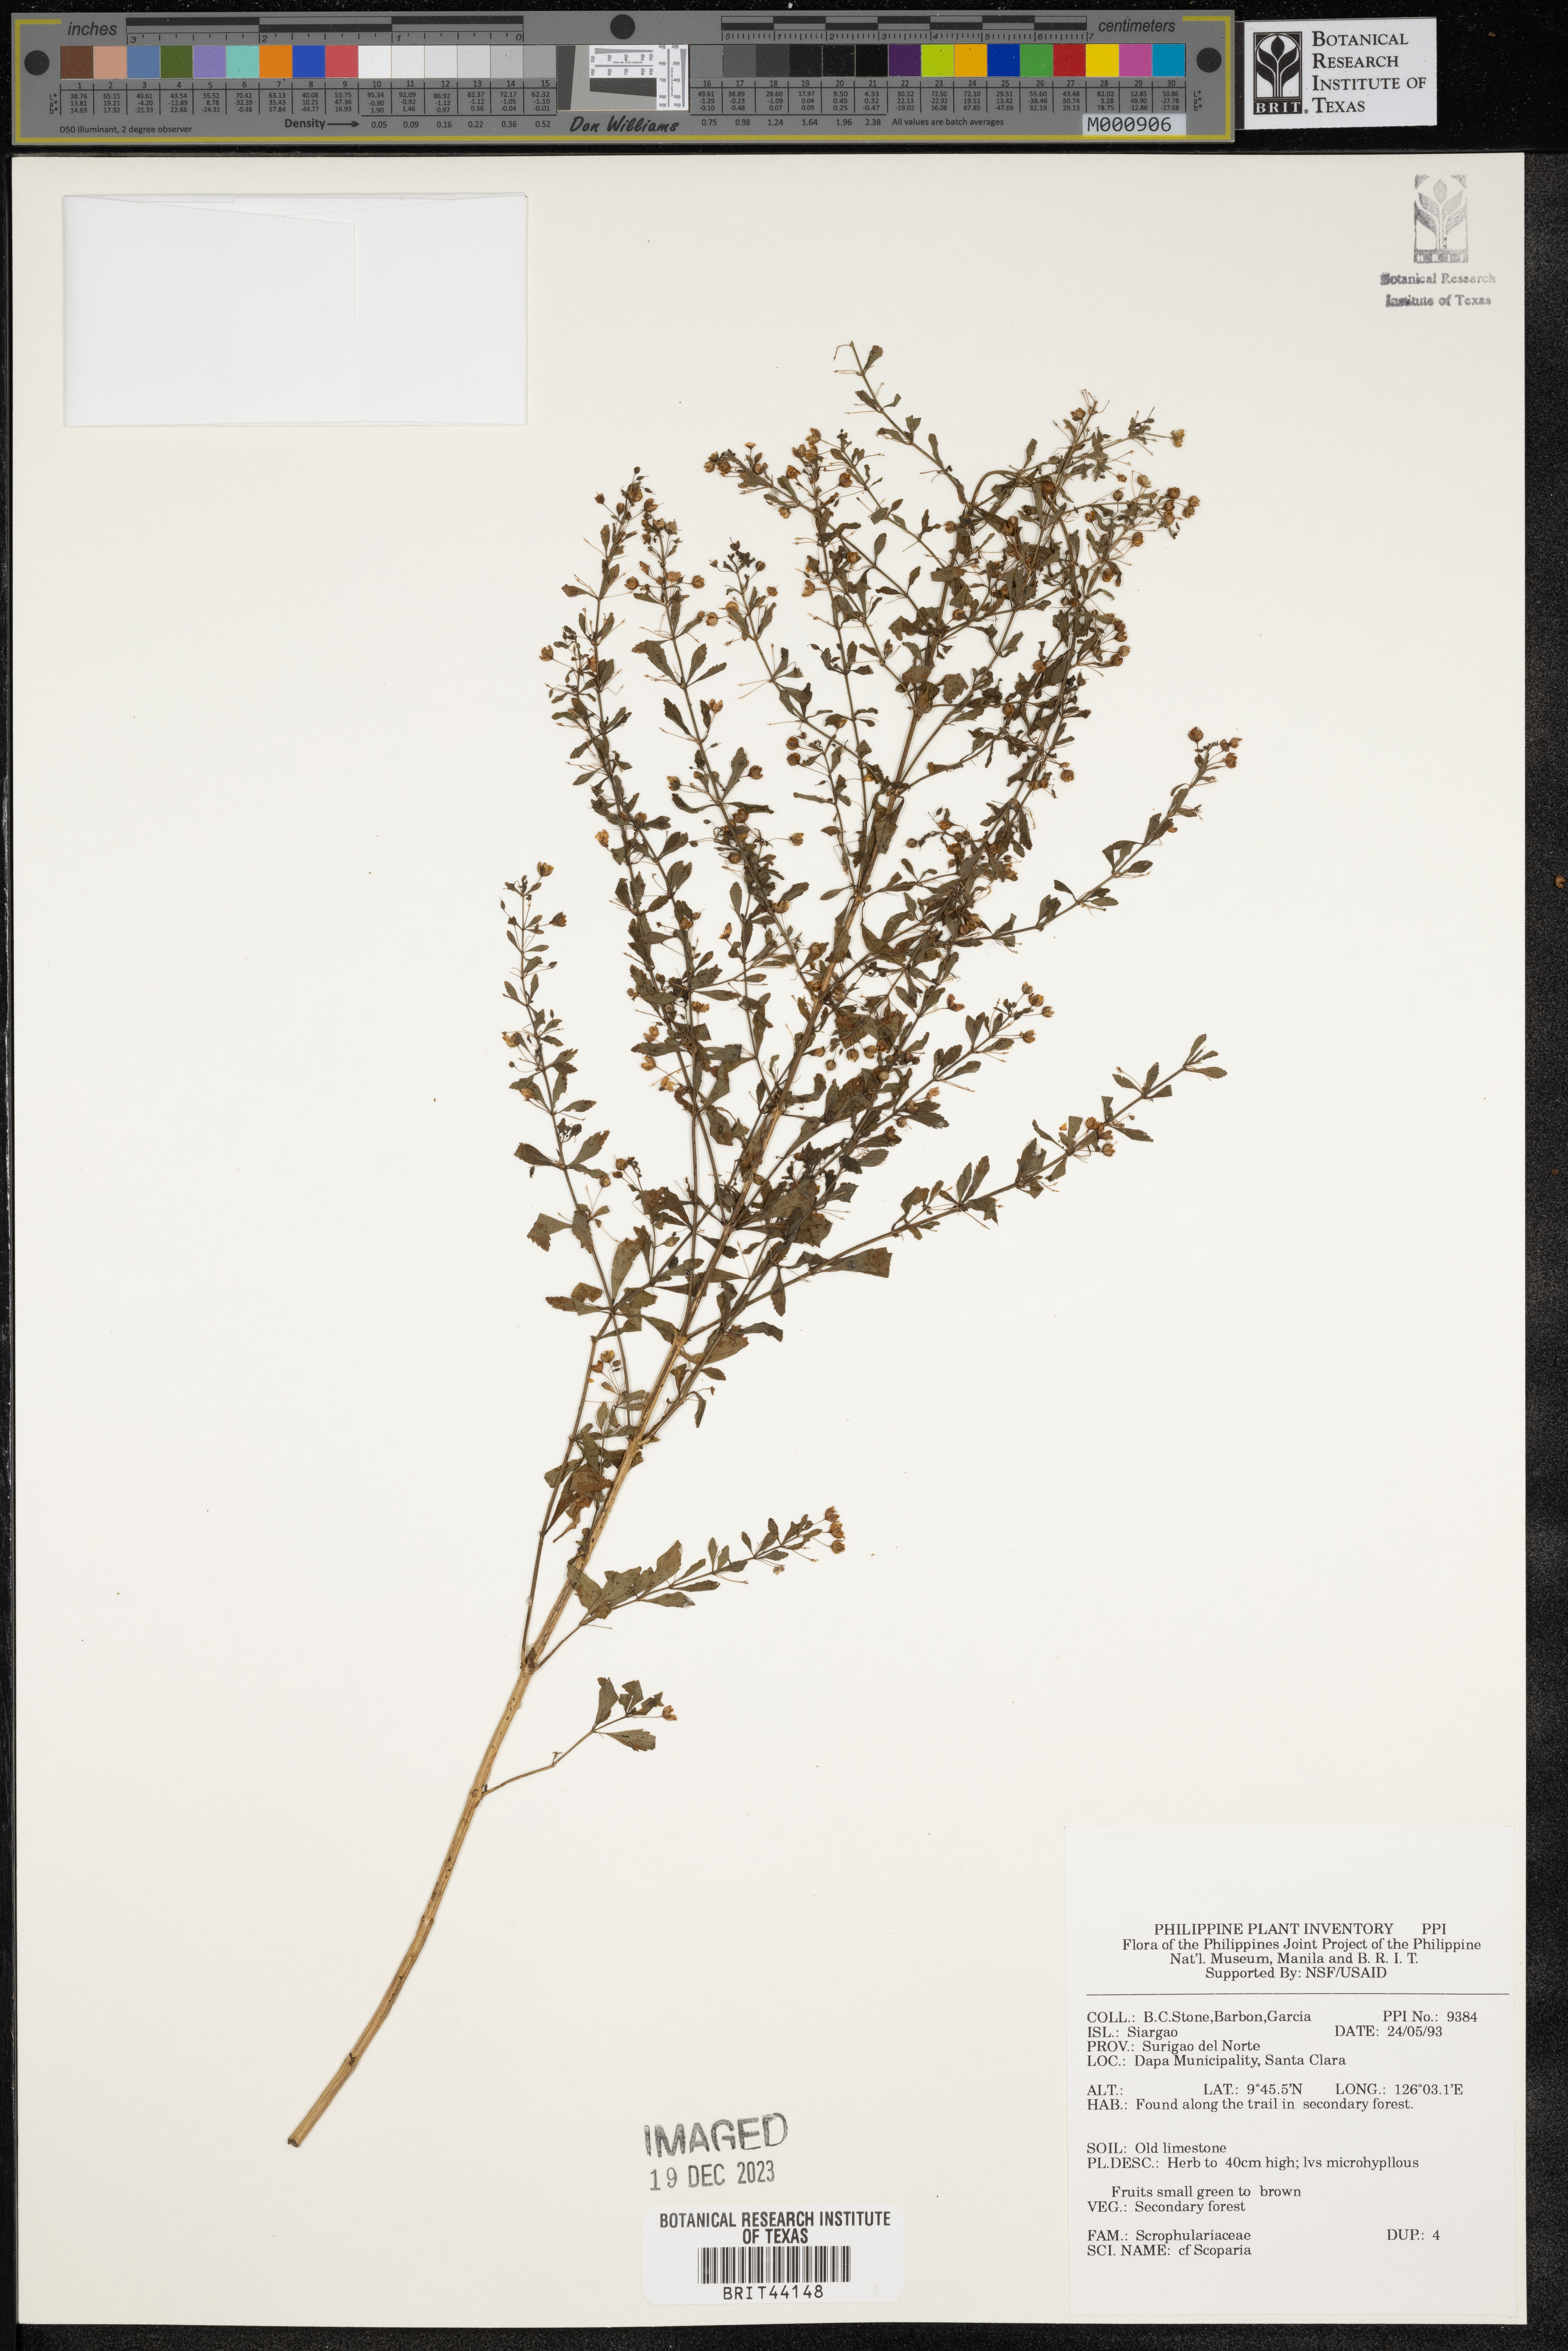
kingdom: Plantae
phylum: Tracheophyta
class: Magnoliopsida
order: Lamiales
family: Plantaginaceae
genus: Scoparia
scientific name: Scoparia
